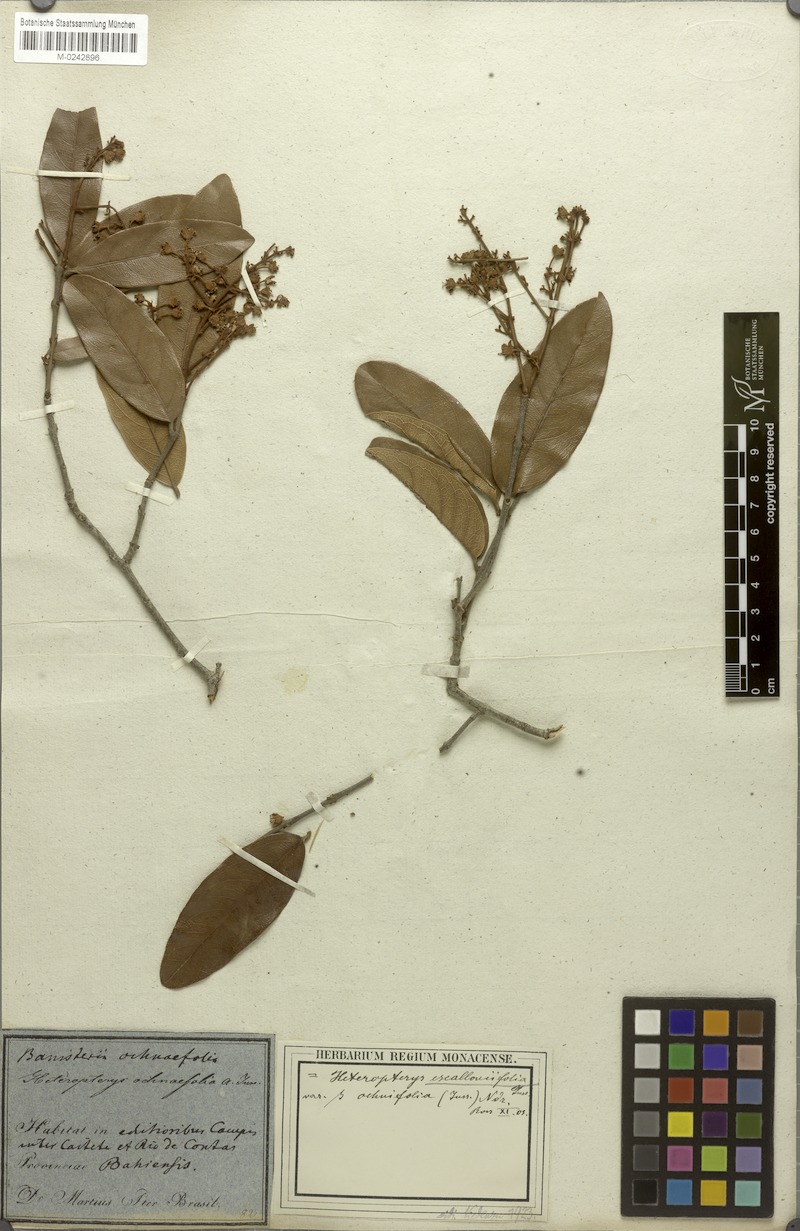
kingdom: Plantae
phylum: Tracheophyta
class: Magnoliopsida
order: Malpighiales
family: Malpighiaceae
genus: Heteropterys
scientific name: Heteropterys escalloniifolia
